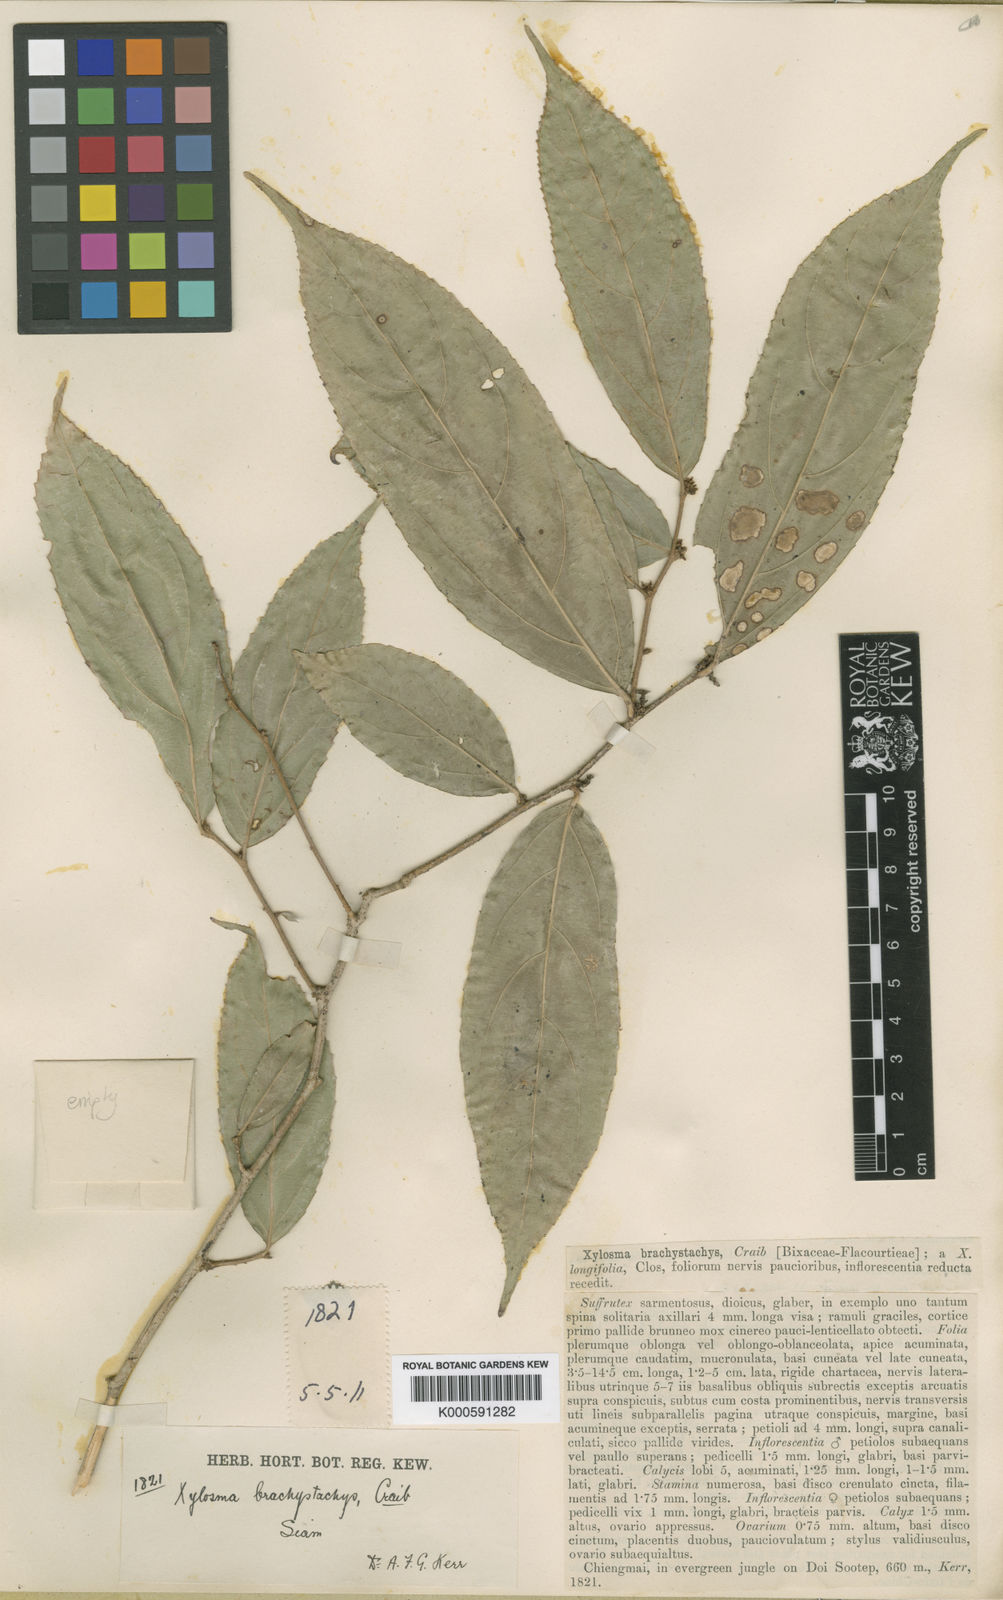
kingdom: Plantae
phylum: Tracheophyta
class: Magnoliopsida
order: Malpighiales
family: Salicaceae
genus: Xylosma
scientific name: Xylosma brachystachys
